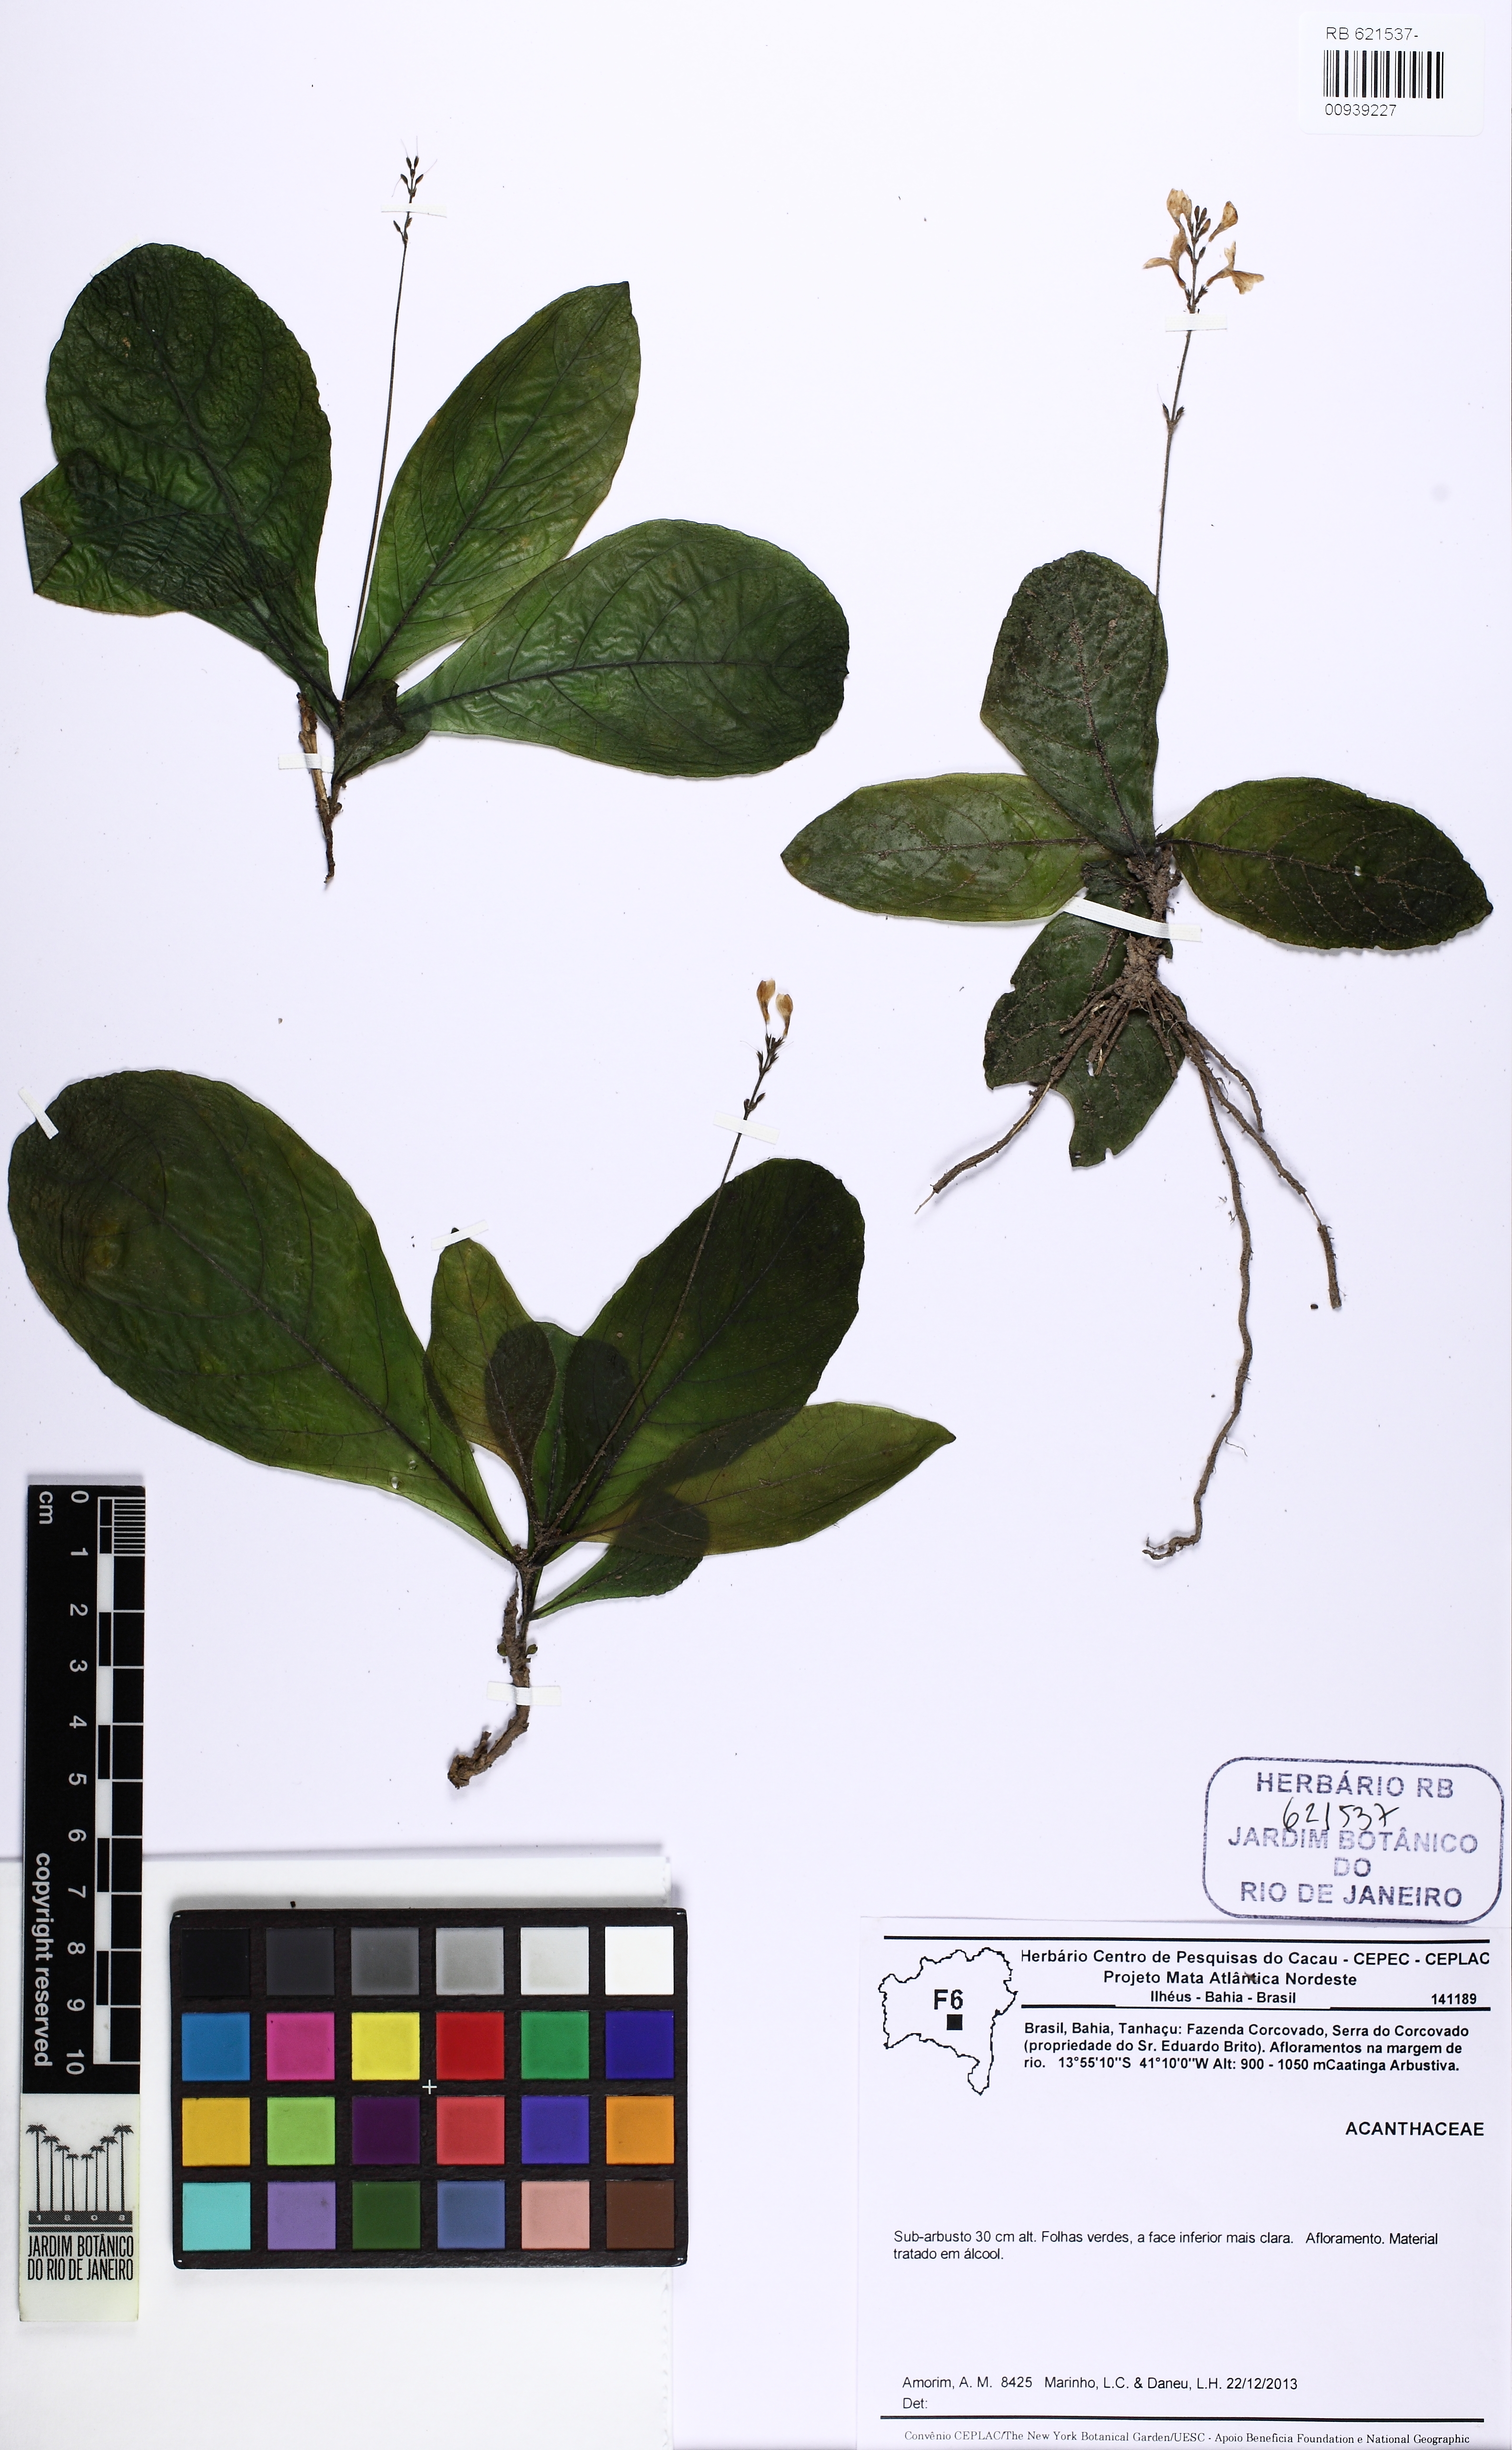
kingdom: Plantae
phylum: Tracheophyta
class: Magnoliopsida
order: Lamiales
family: Acanthaceae
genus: Pseuderanthemum
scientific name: Pseuderanthemum modestum
